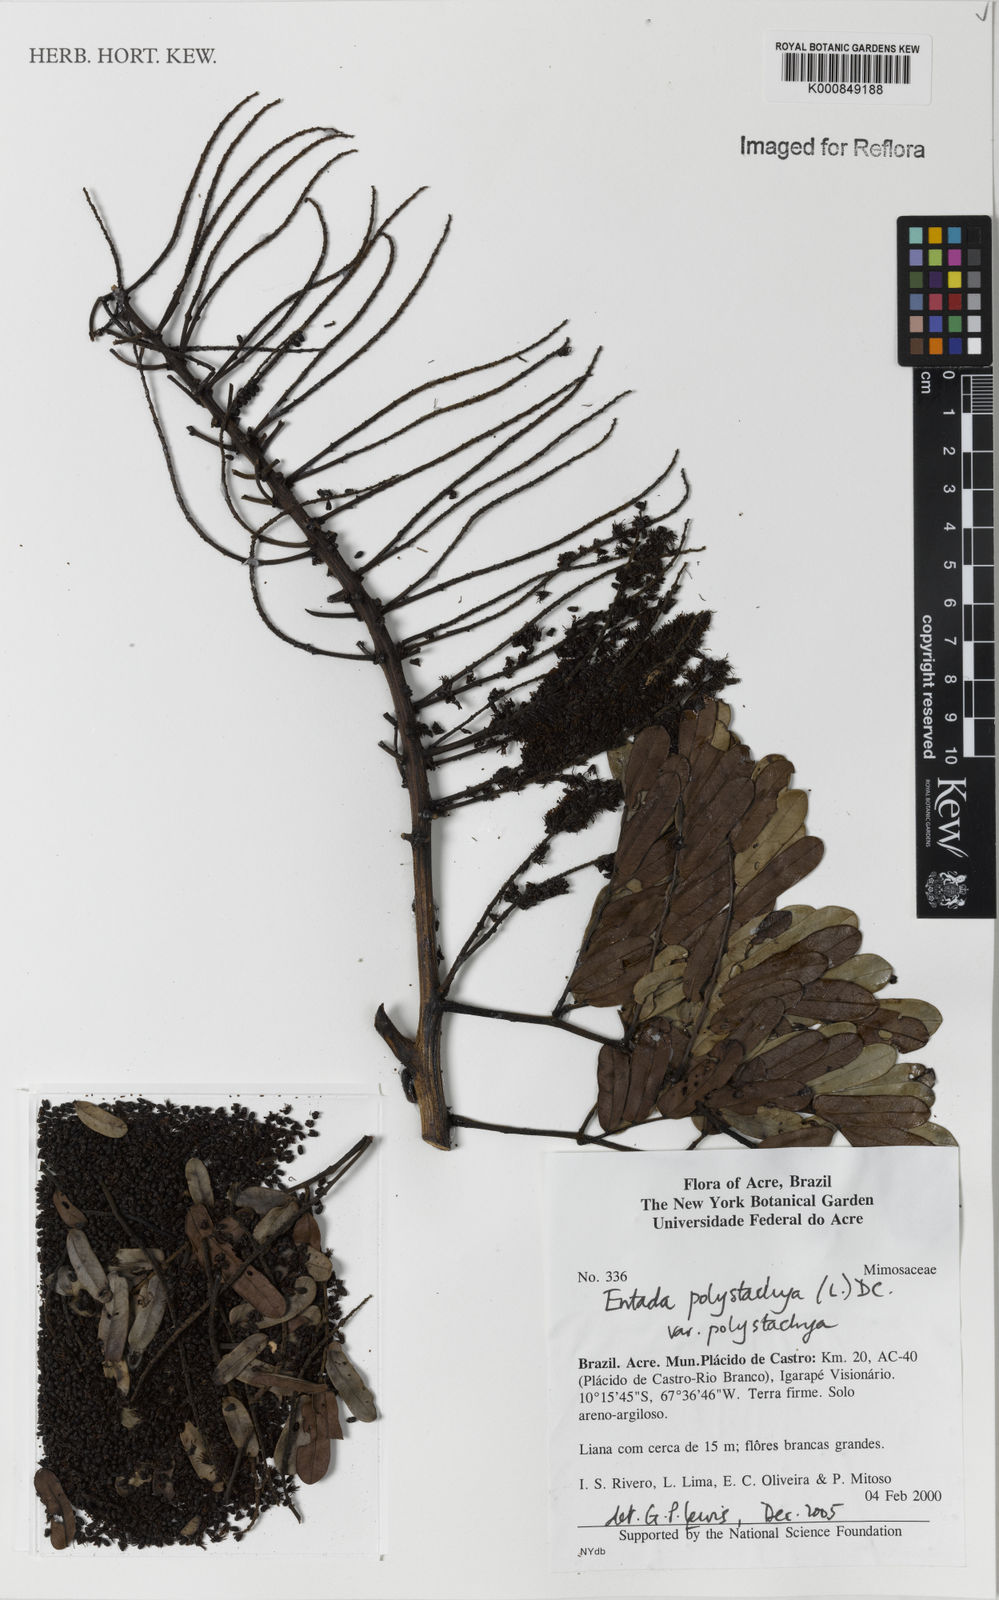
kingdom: Plantae
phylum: Tracheophyta
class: Magnoliopsida
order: Fabales
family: Fabaceae
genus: Entada
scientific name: Entada polystachya
